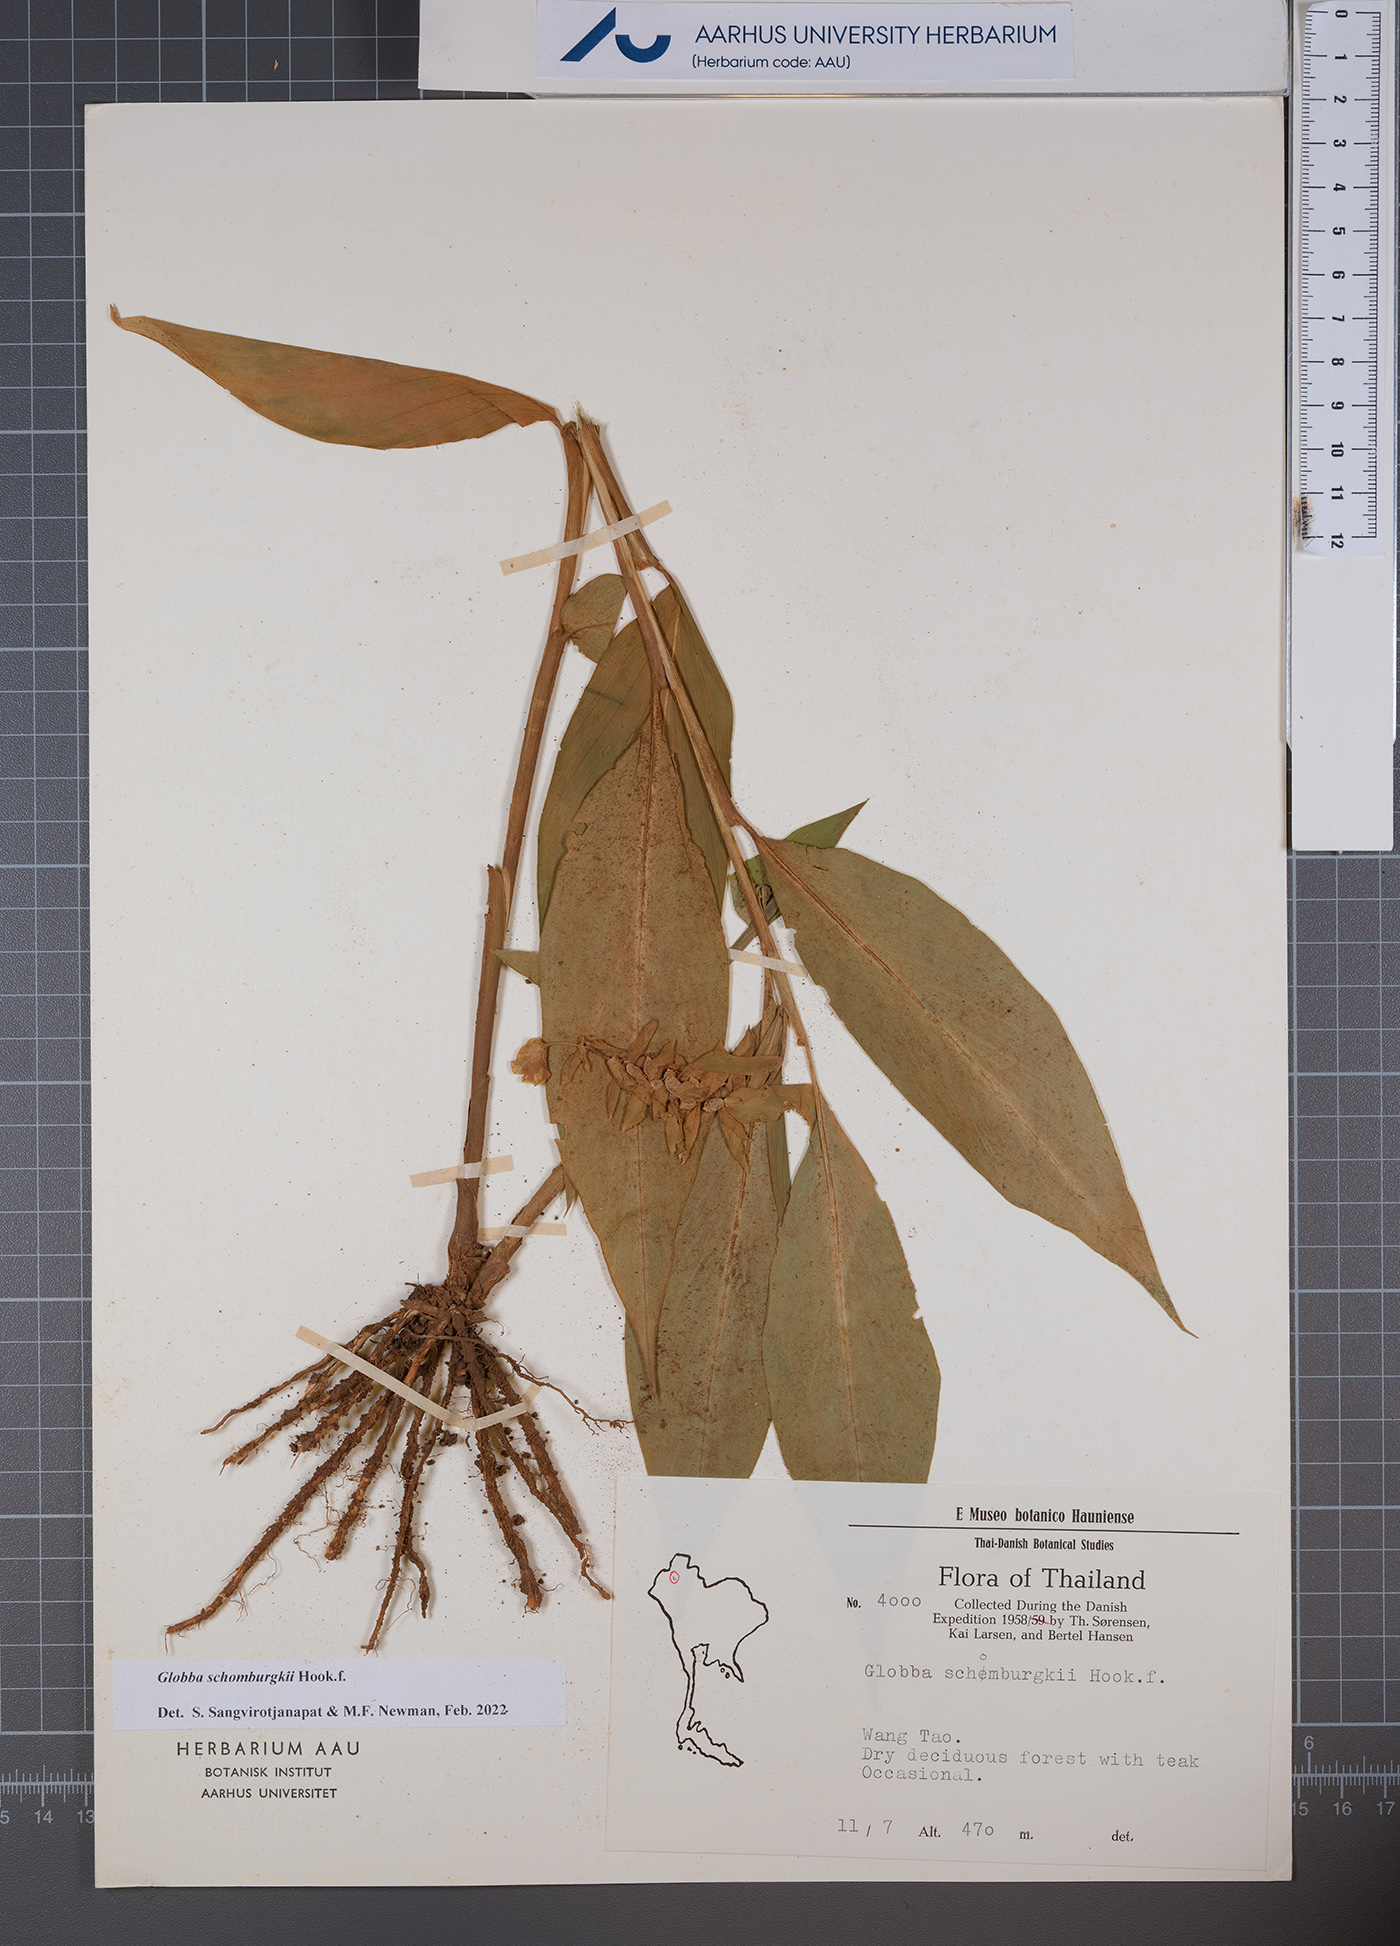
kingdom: Plantae
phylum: Tracheophyta
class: Liliopsida
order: Zingiberales
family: Zingiberaceae
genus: Globba
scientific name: Globba schomburgkii
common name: Dancing girl ginger
